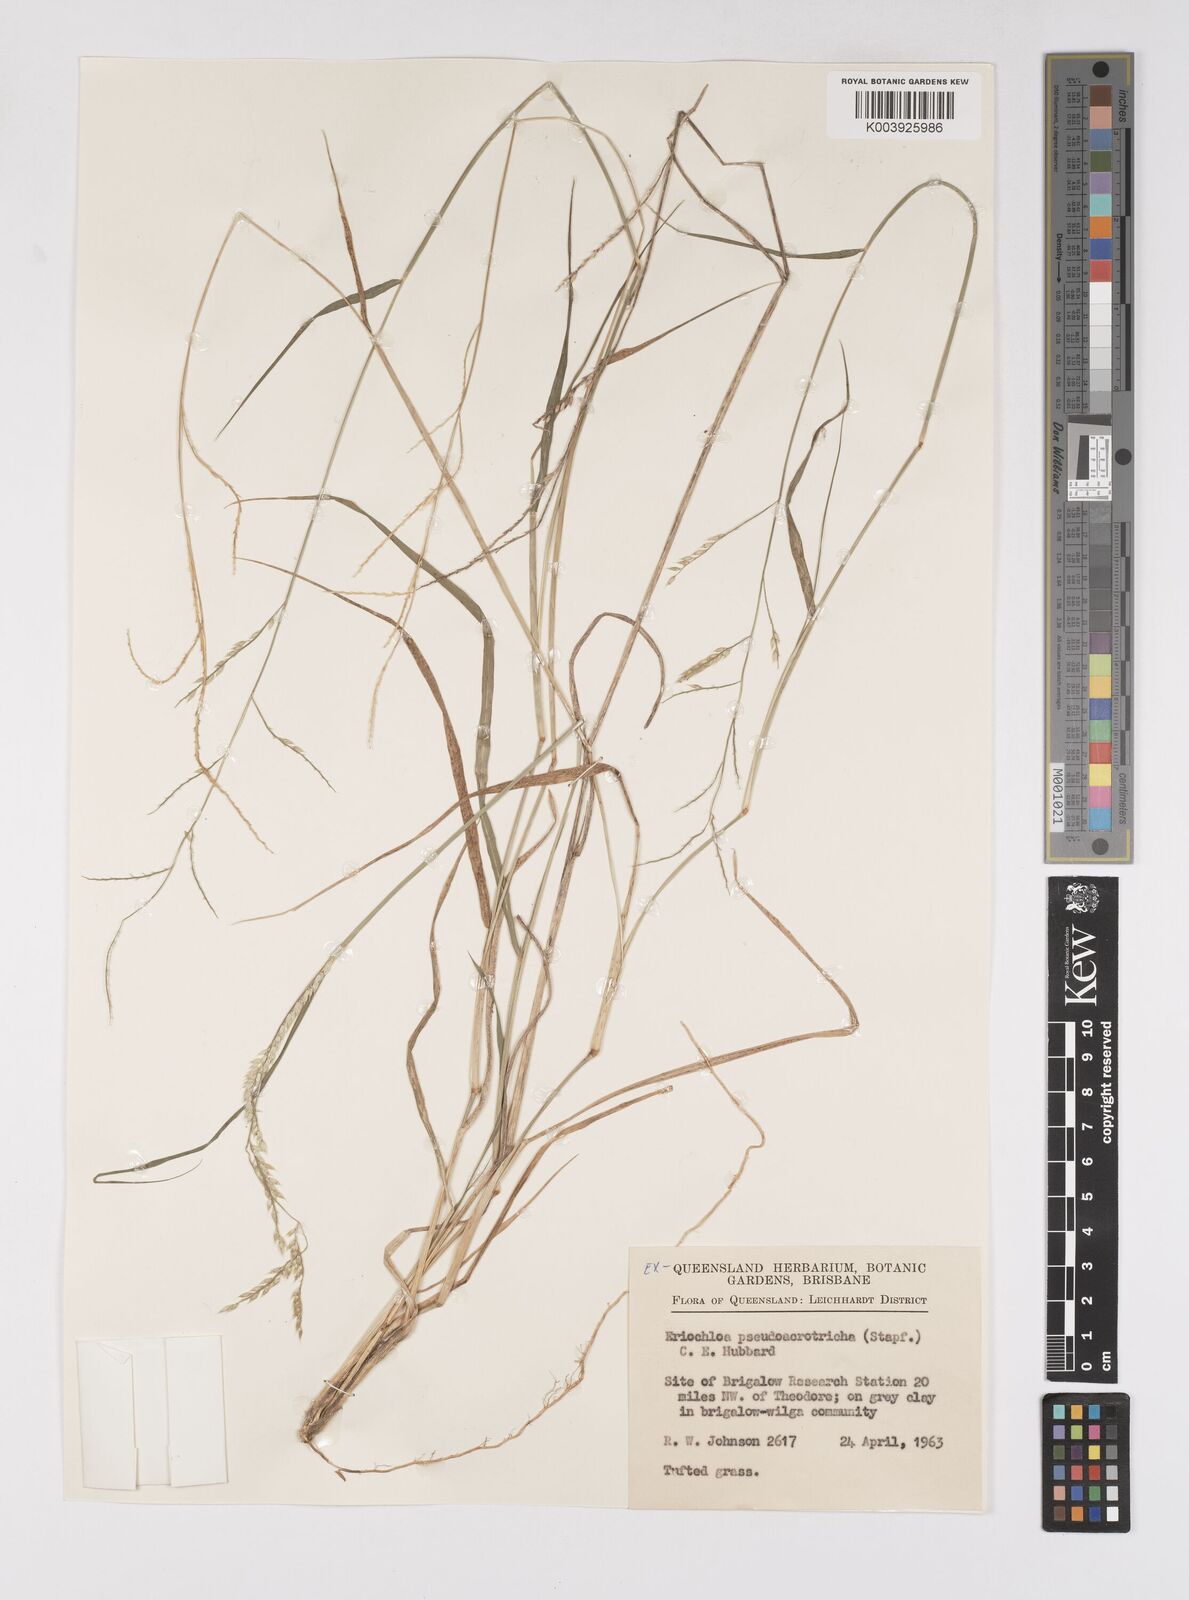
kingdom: Plantae
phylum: Tracheophyta
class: Liliopsida
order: Poales
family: Poaceae
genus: Eriochloa
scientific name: Eriochloa pseudoacrotricha
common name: Perennial cup-grass
